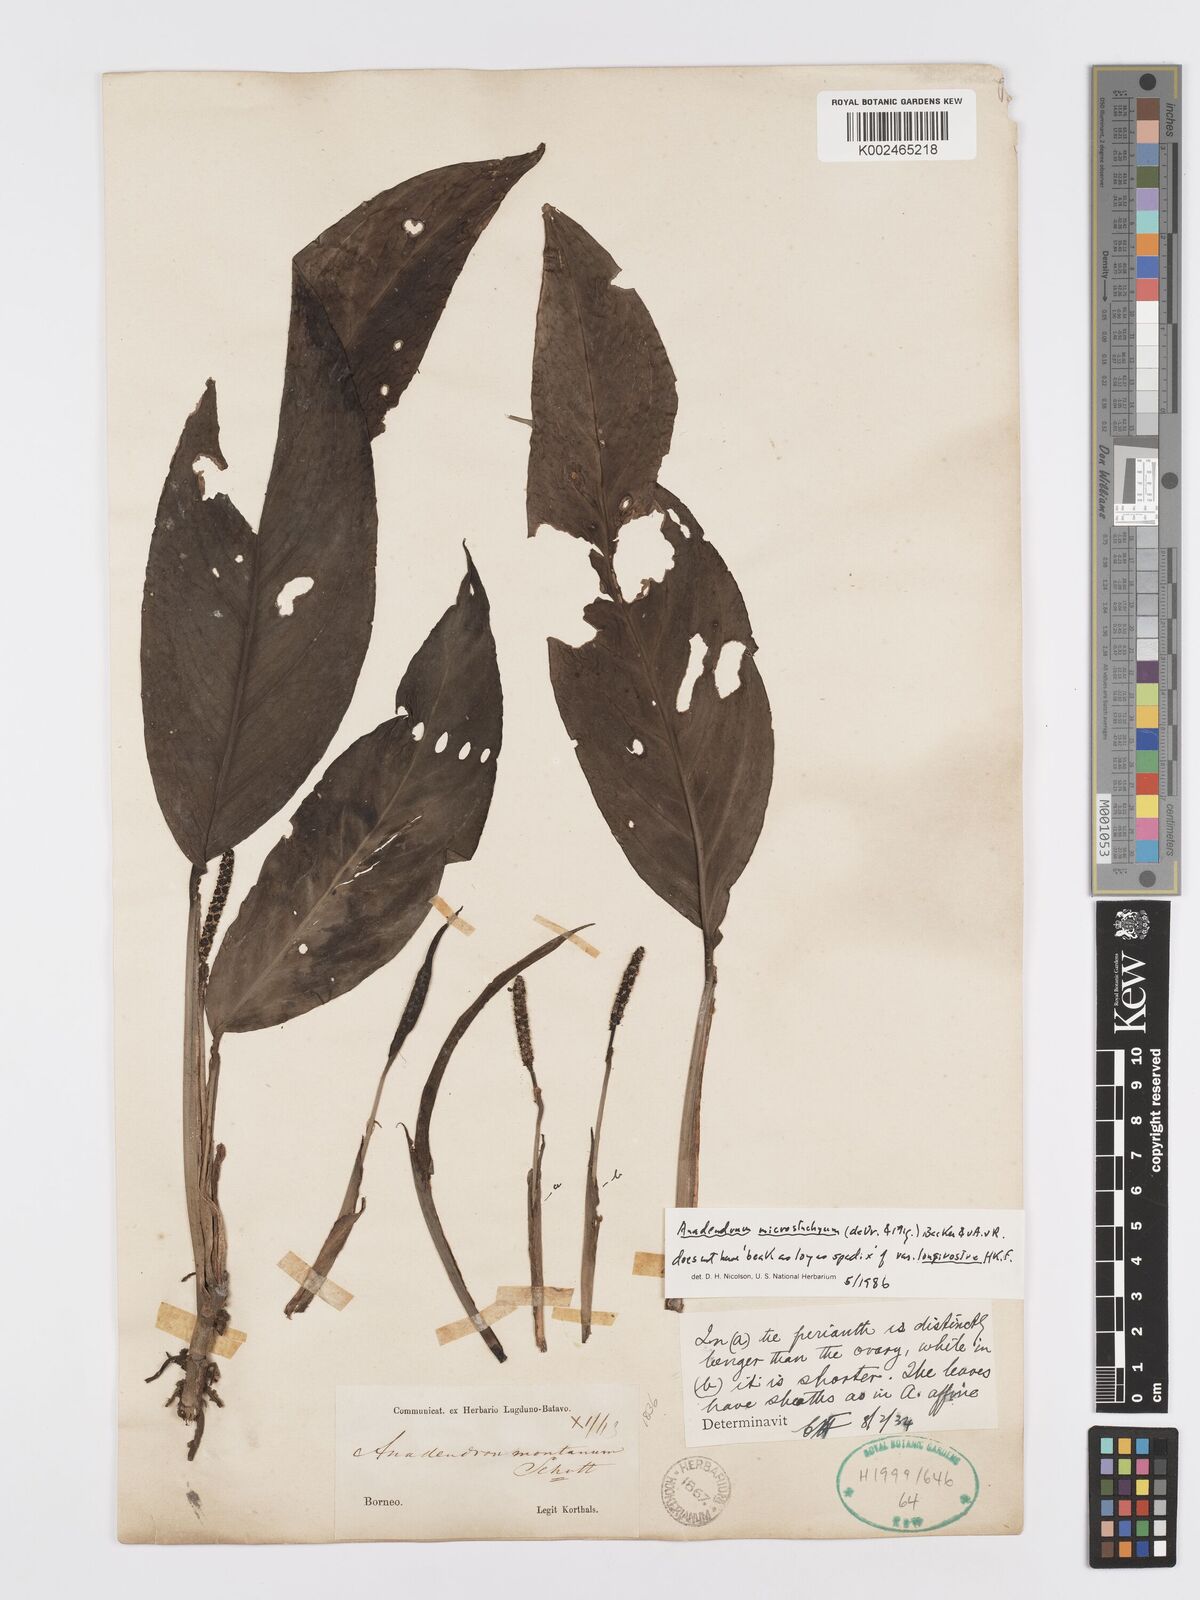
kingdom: Plantae
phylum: Tracheophyta
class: Liliopsida
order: Alismatales
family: Araceae
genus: Anadendrum
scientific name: Anadendrum microstachyum
